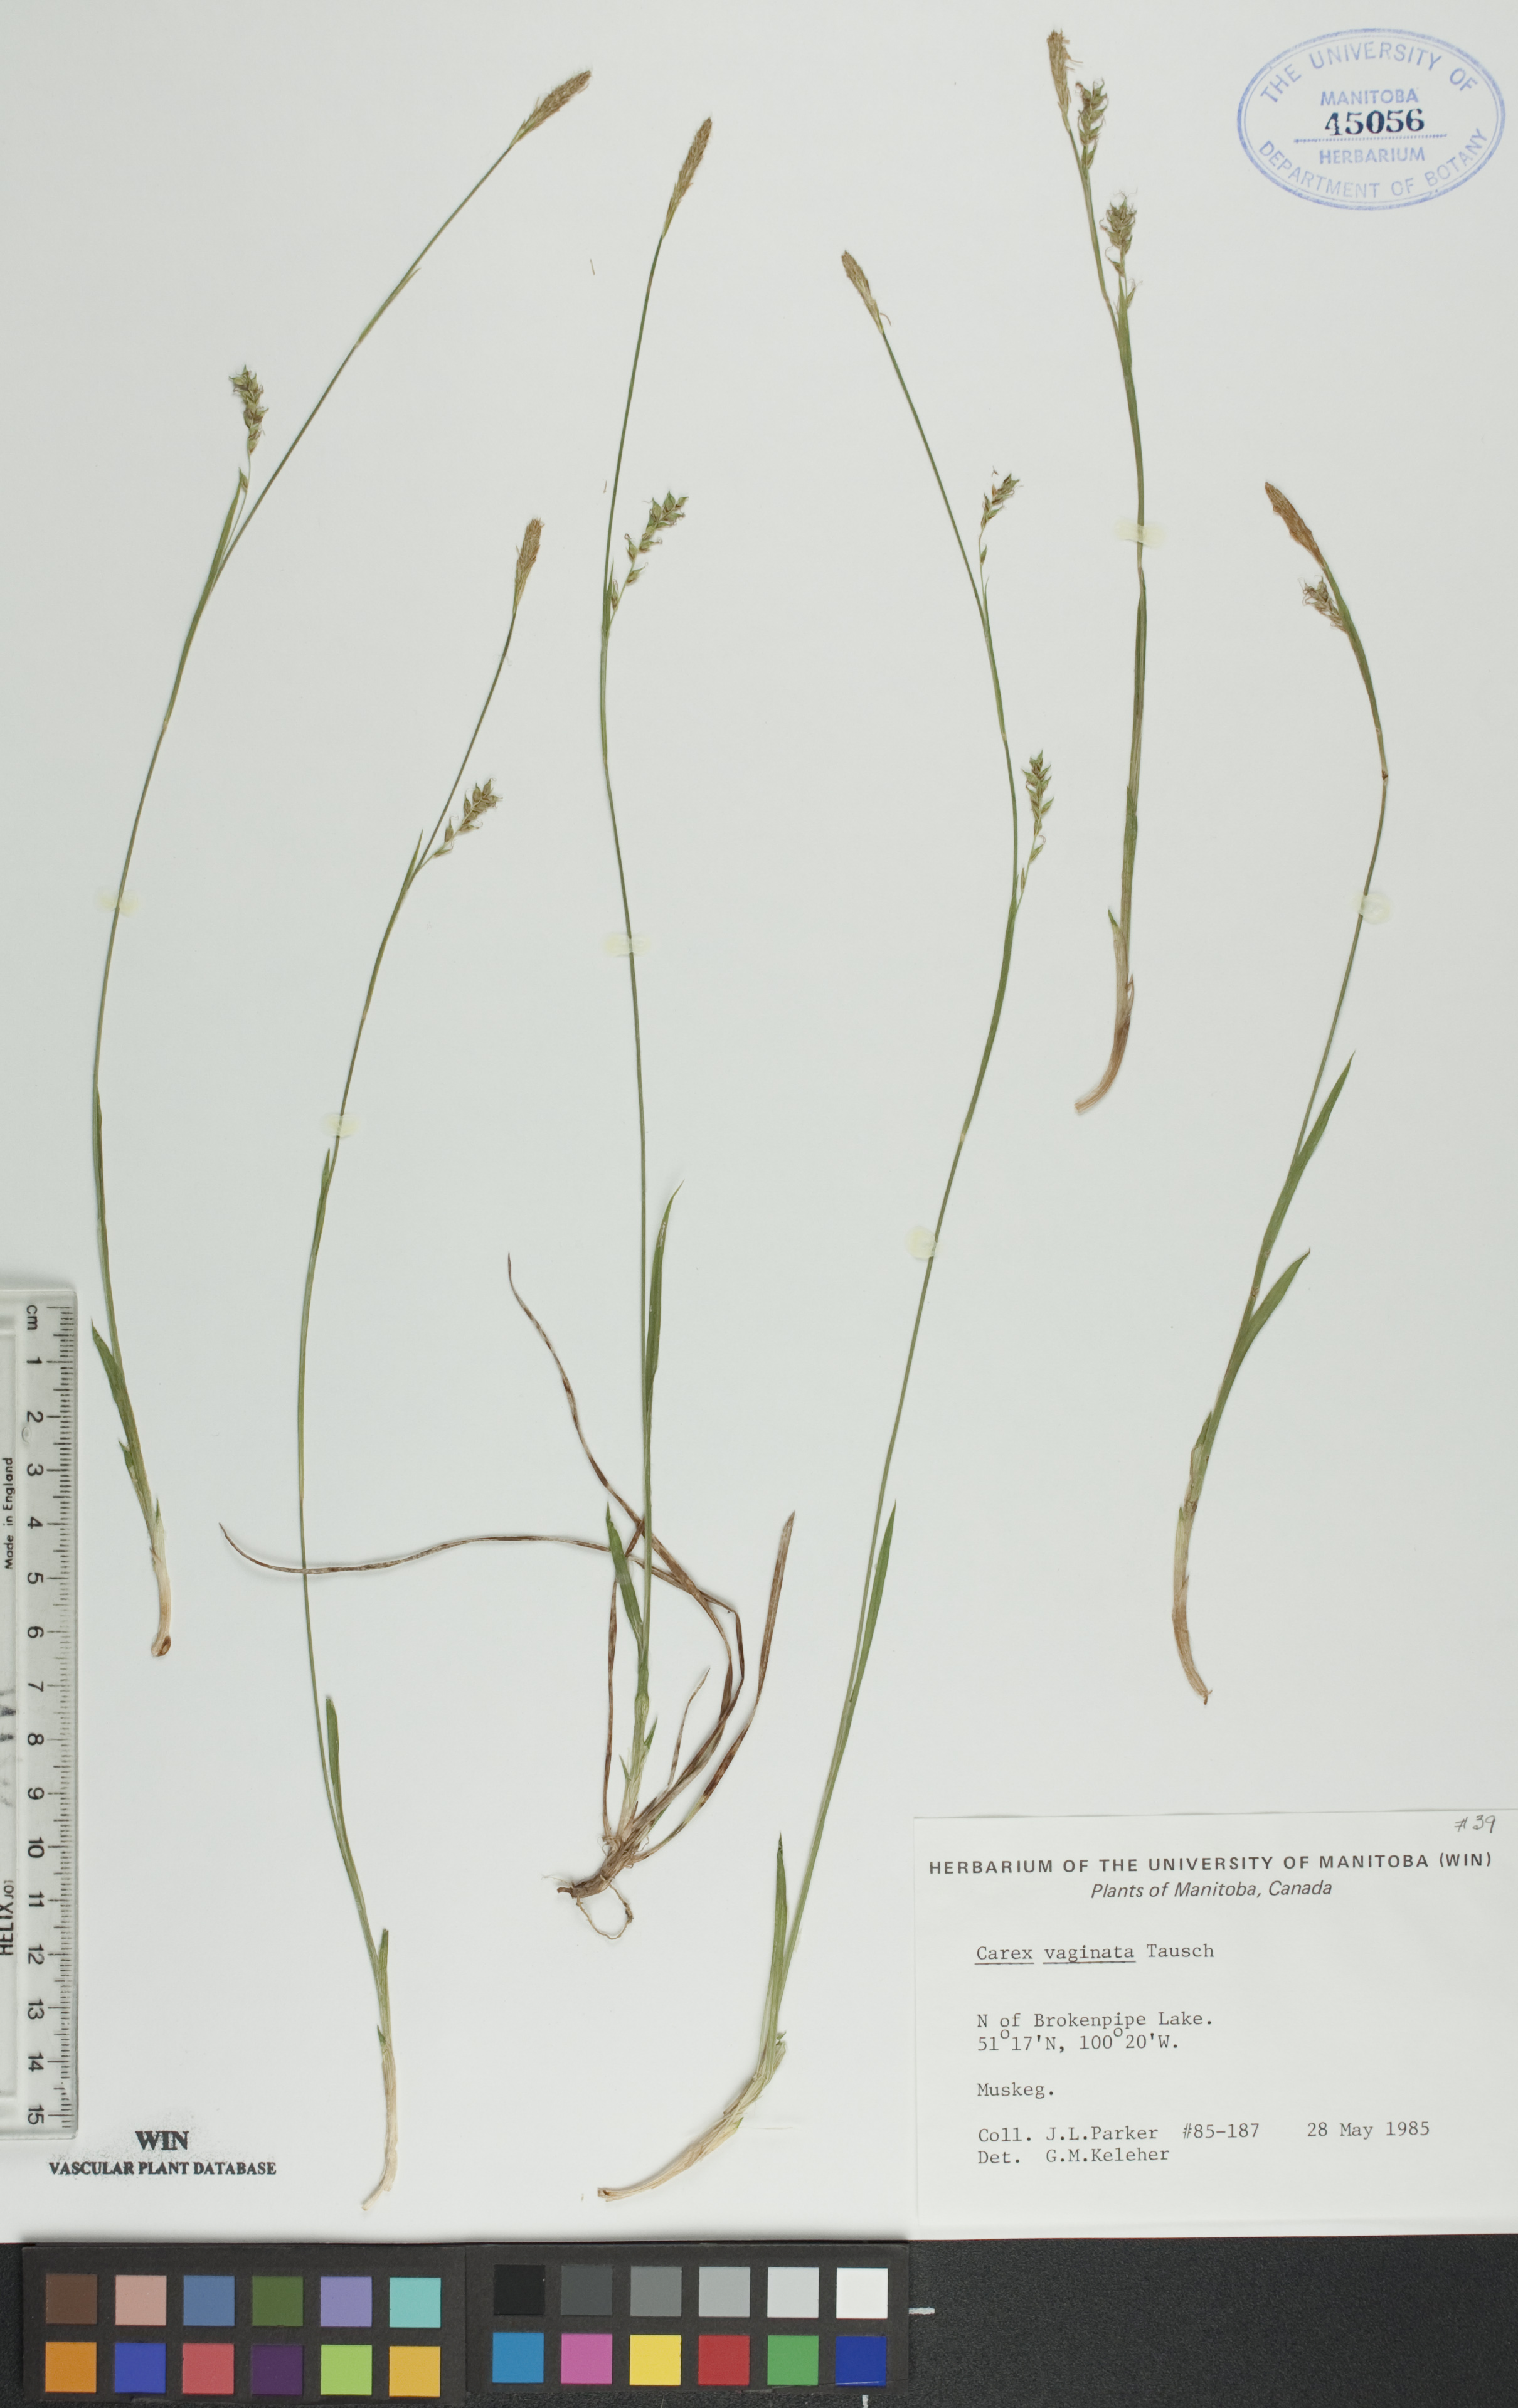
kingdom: Plantae
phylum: Tracheophyta
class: Liliopsida
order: Poales
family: Cyperaceae
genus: Carex
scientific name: Carex vaginata
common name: Sheathed sedge
